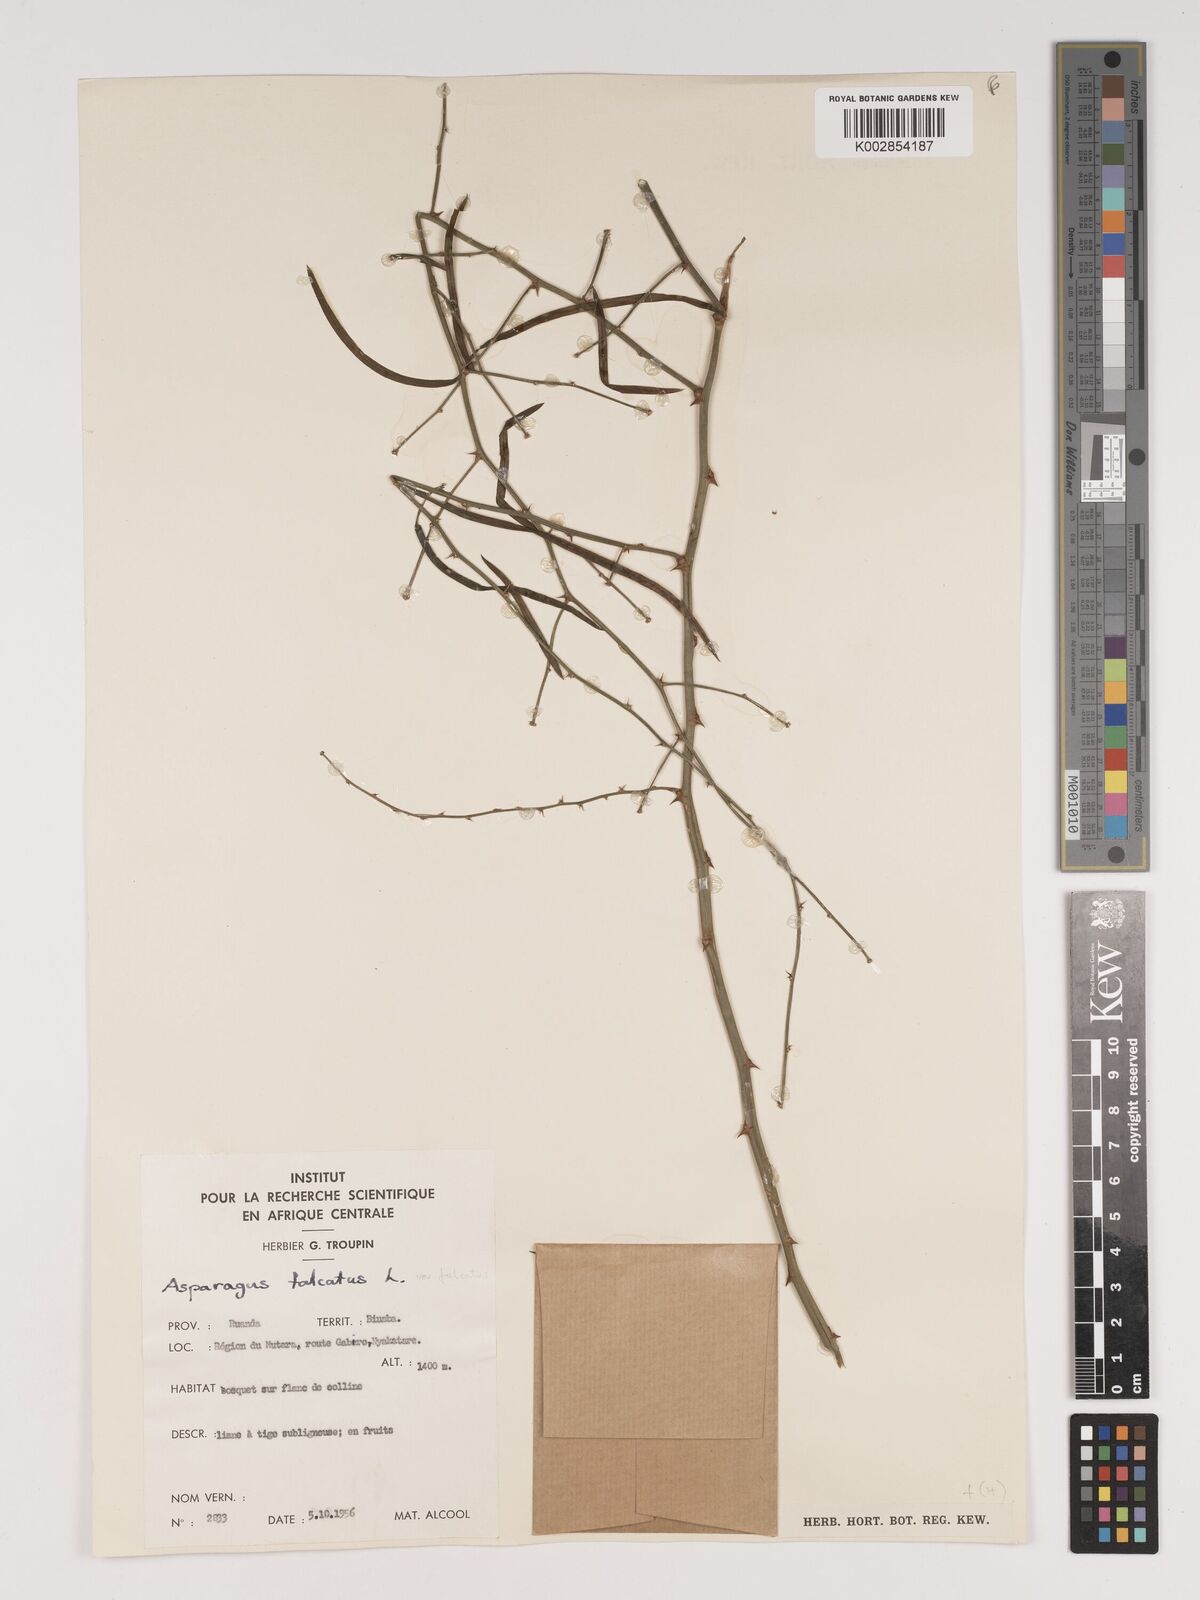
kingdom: Plantae
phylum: Tracheophyta
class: Liliopsida
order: Asparagales
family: Asparagaceae
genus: Asparagus
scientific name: Asparagus falcatus
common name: Asparagus
